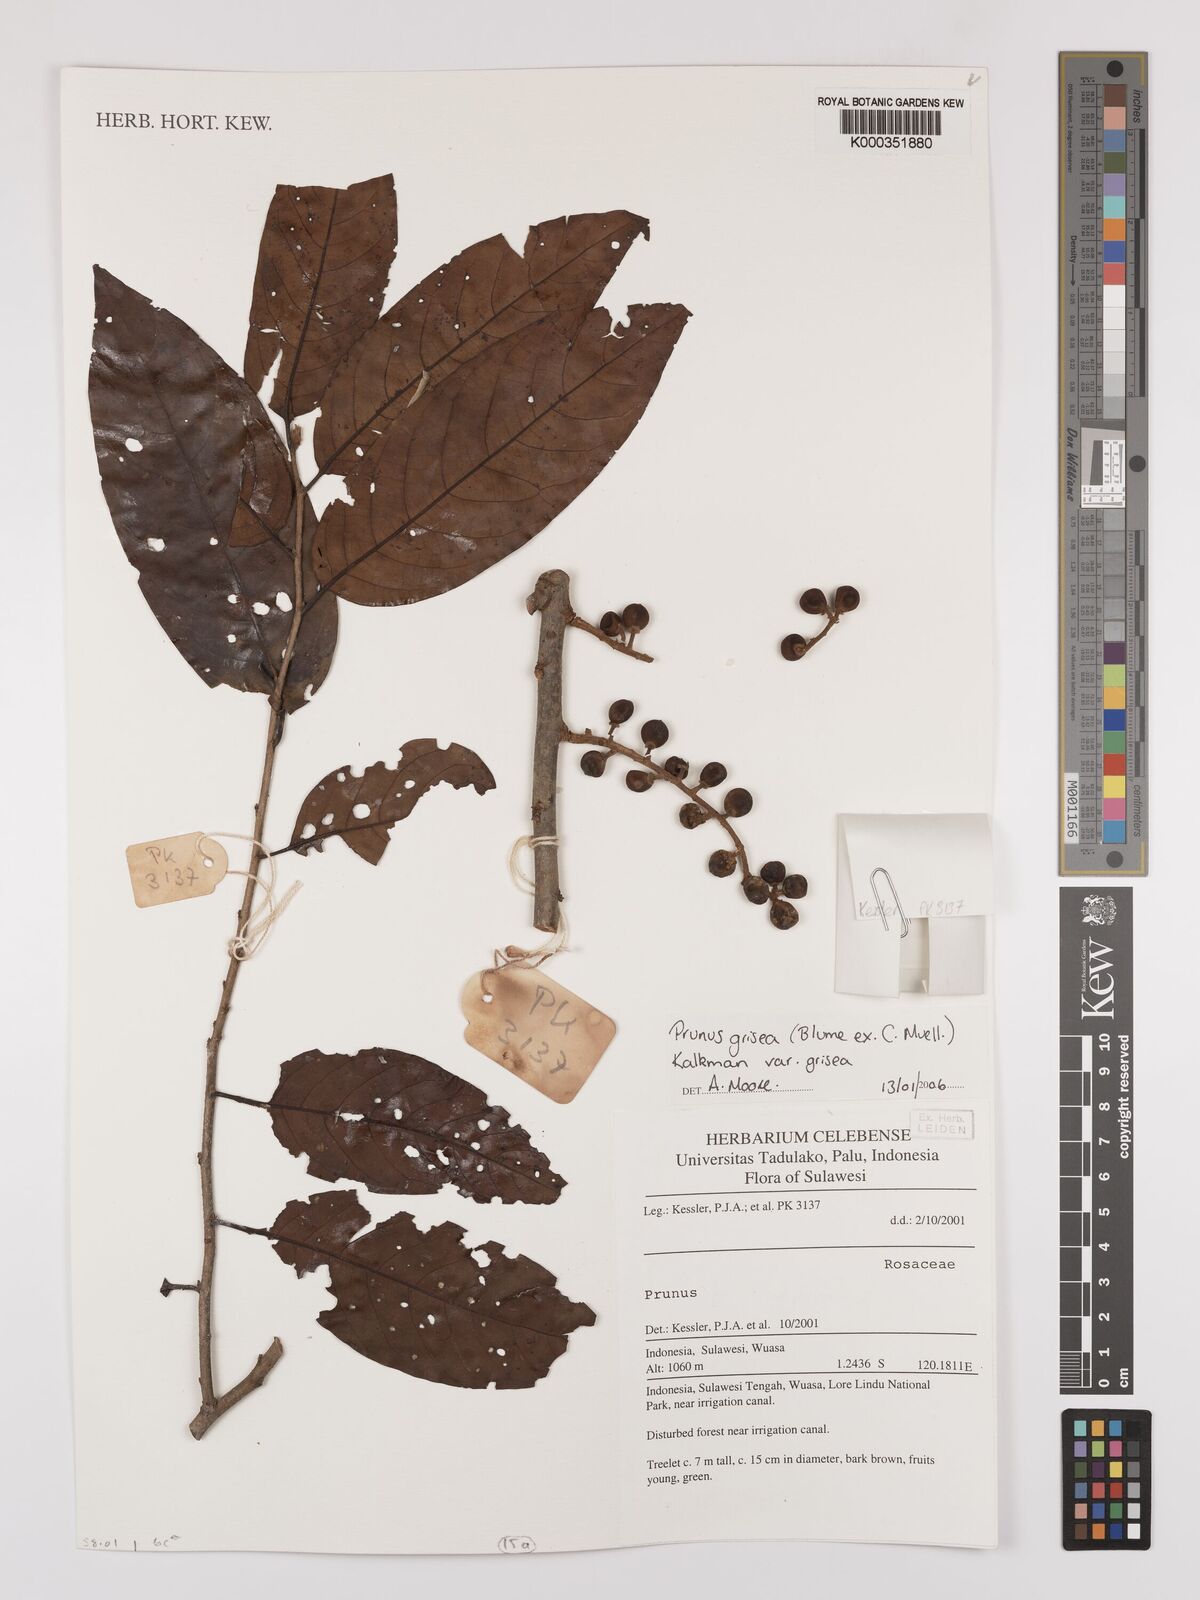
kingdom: Plantae
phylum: Tracheophyta
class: Magnoliopsida
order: Rosales
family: Rosaceae
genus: Prunus
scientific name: Prunus grisea
